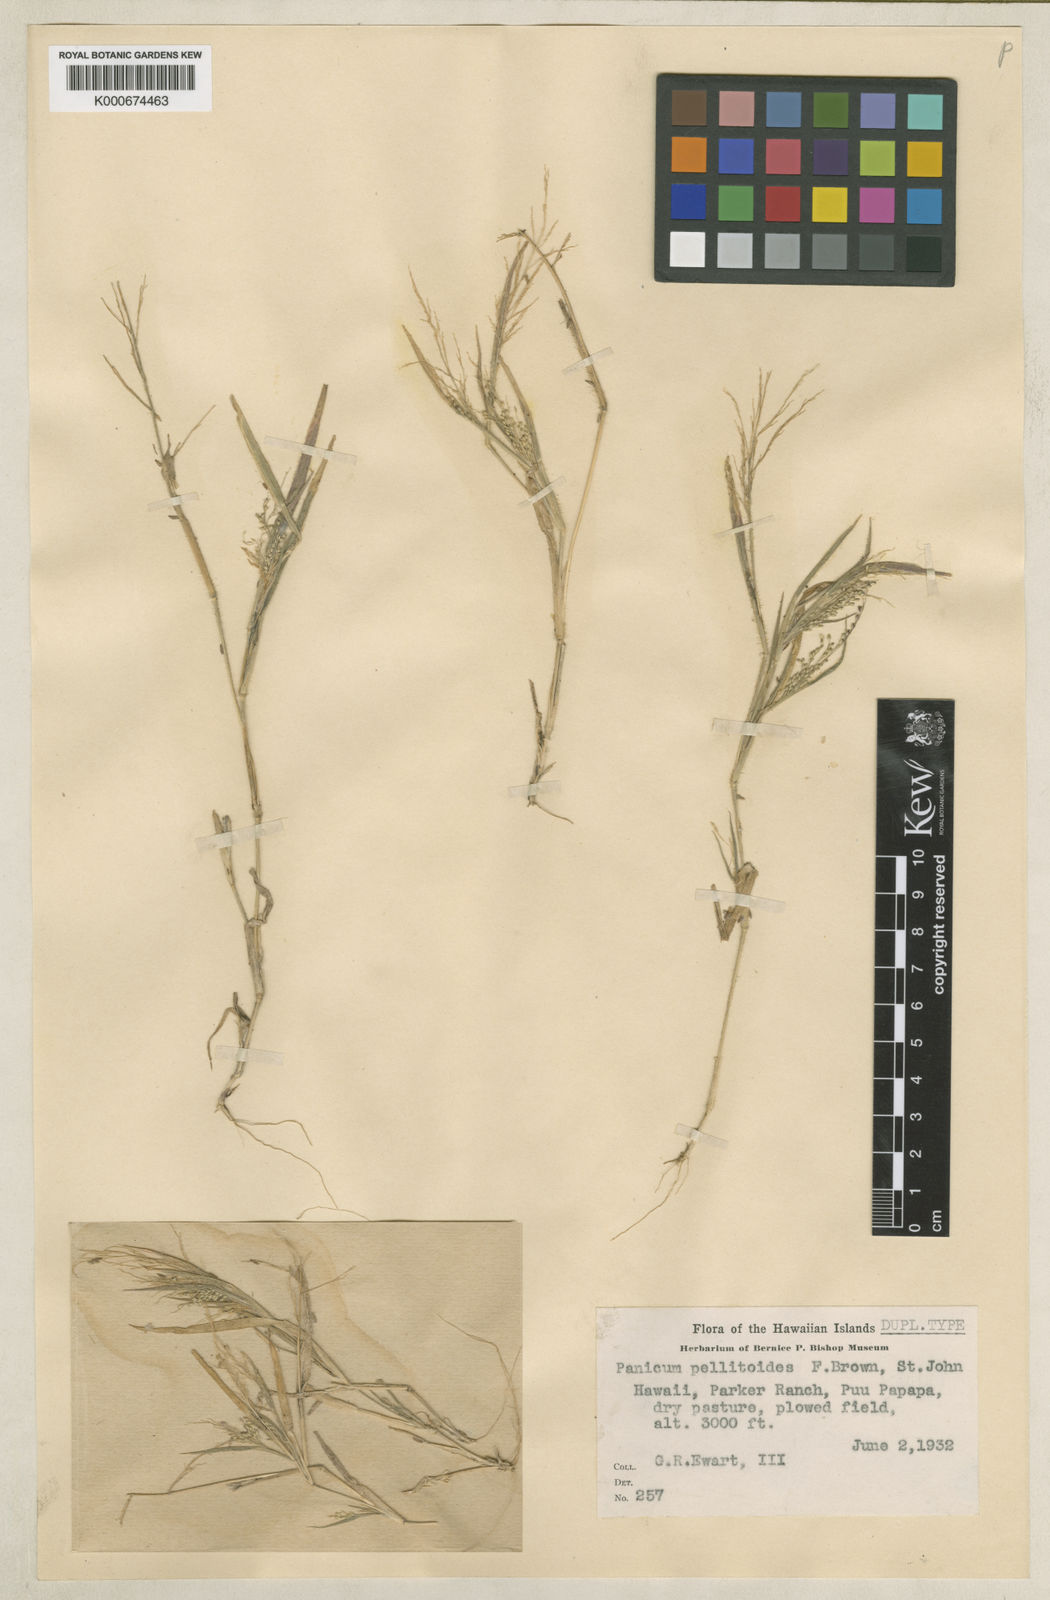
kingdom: Plantae
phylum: Tracheophyta
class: Liliopsida
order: Poales
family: Poaceae
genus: Panicum
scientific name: Panicum pellitum
